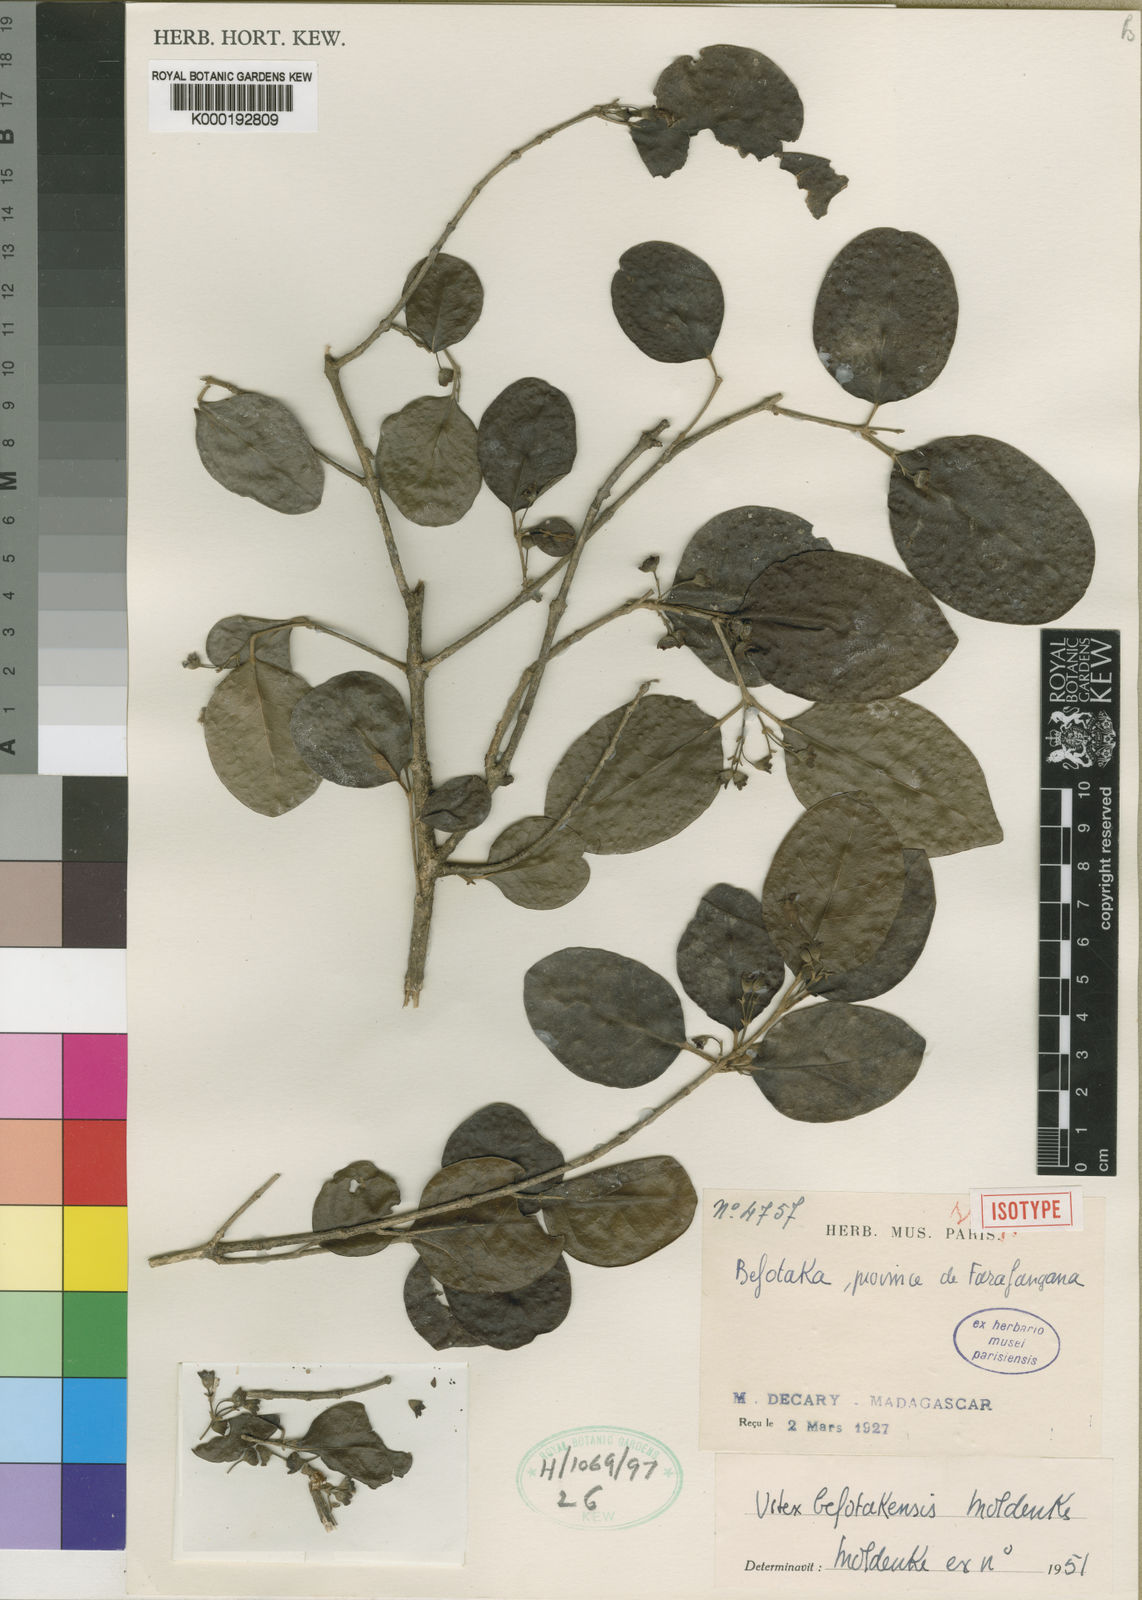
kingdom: Plantae
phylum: Tracheophyta
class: Magnoliopsida
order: Lamiales
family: Lamiaceae
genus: Vitex
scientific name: Vitex befotakensis
